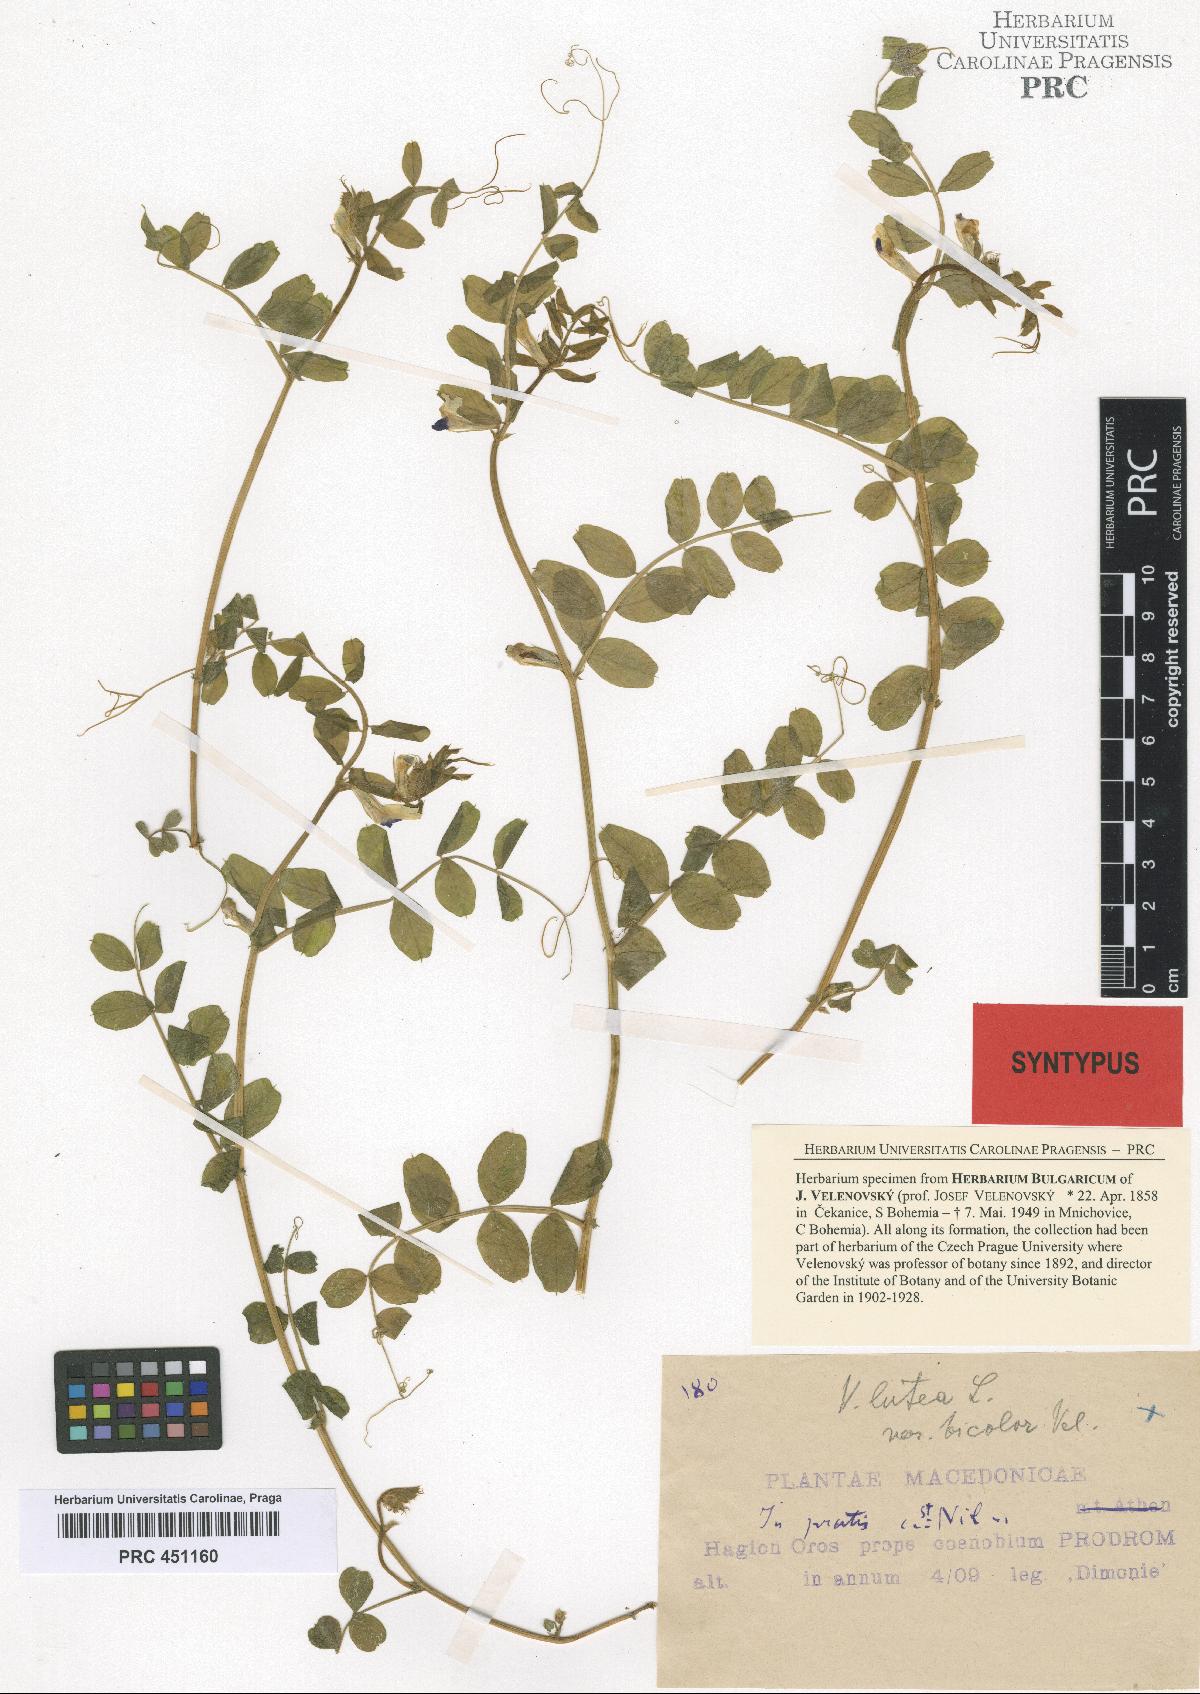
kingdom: Plantae
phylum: Tracheophyta
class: Magnoliopsida
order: Fabales
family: Fabaceae
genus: Vicia
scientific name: Vicia laeta
